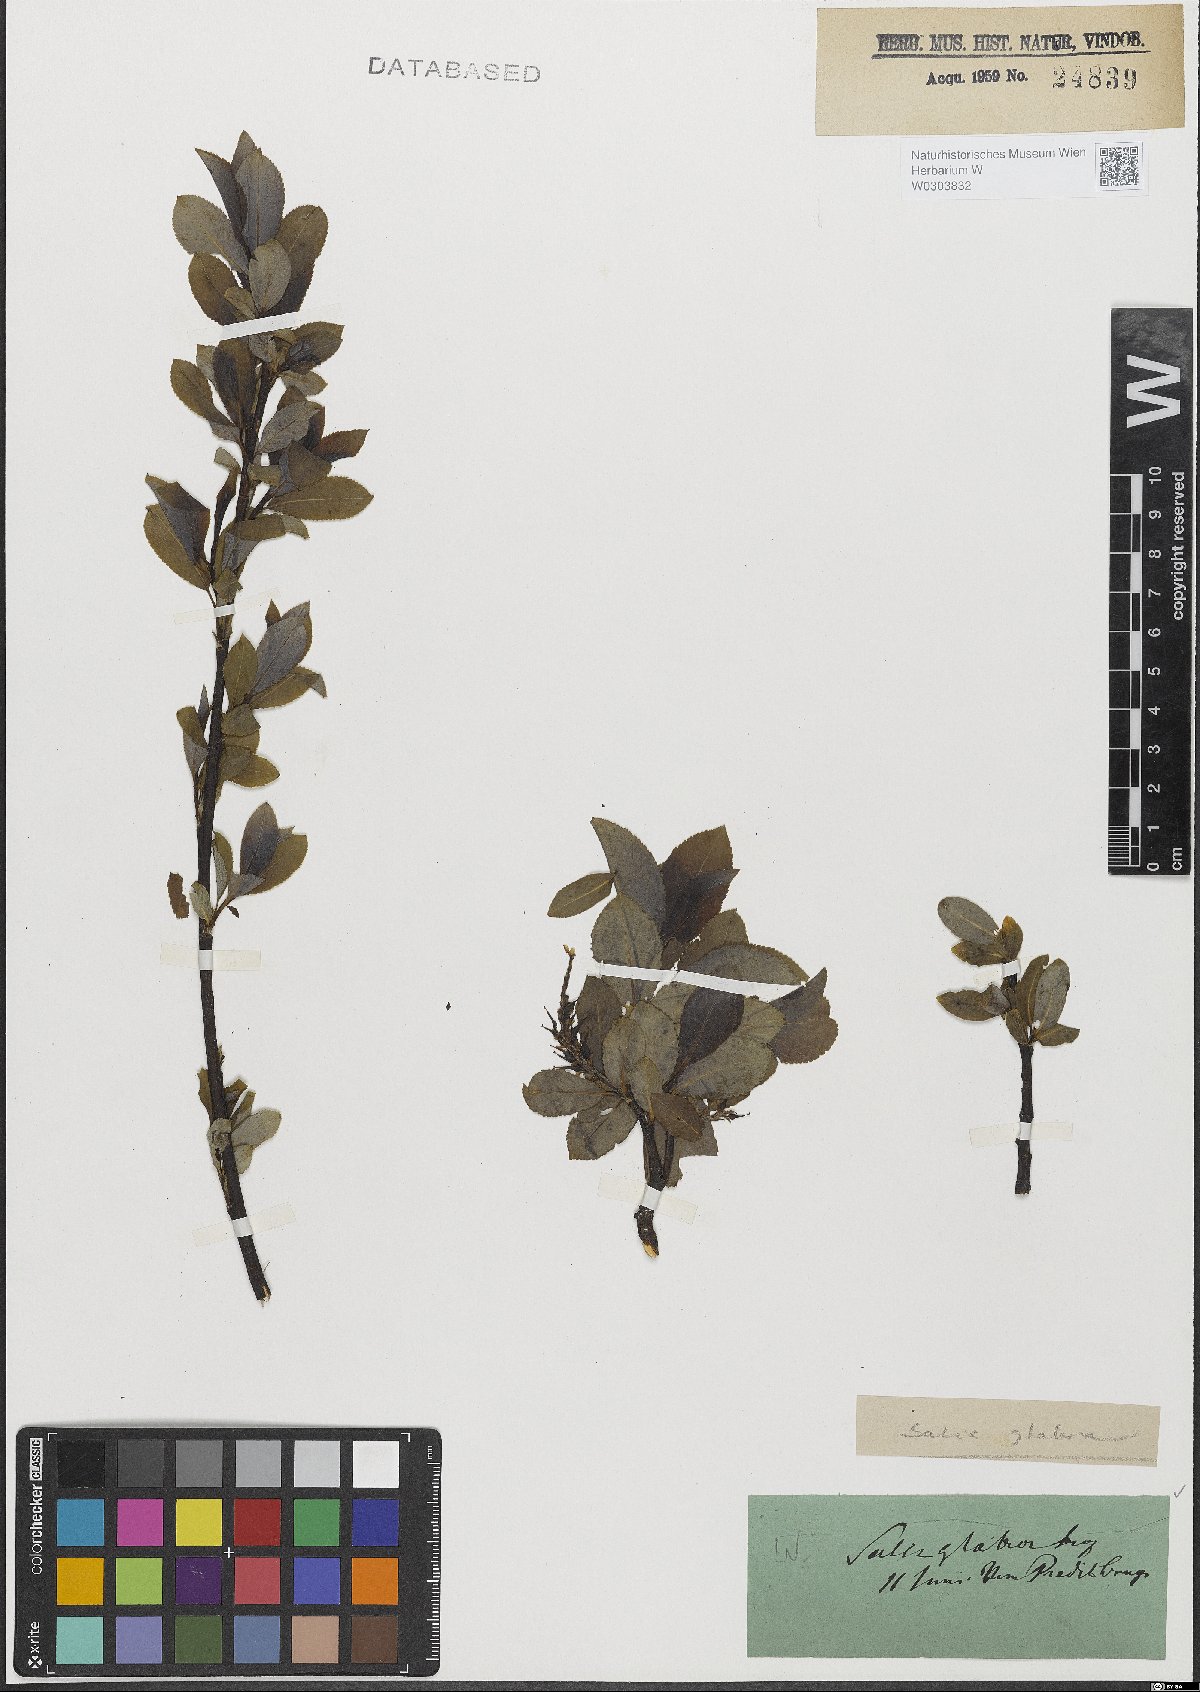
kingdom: Plantae
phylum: Tracheophyta
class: Magnoliopsida
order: Malpighiales
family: Salicaceae
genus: Salix
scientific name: Salix glabra
